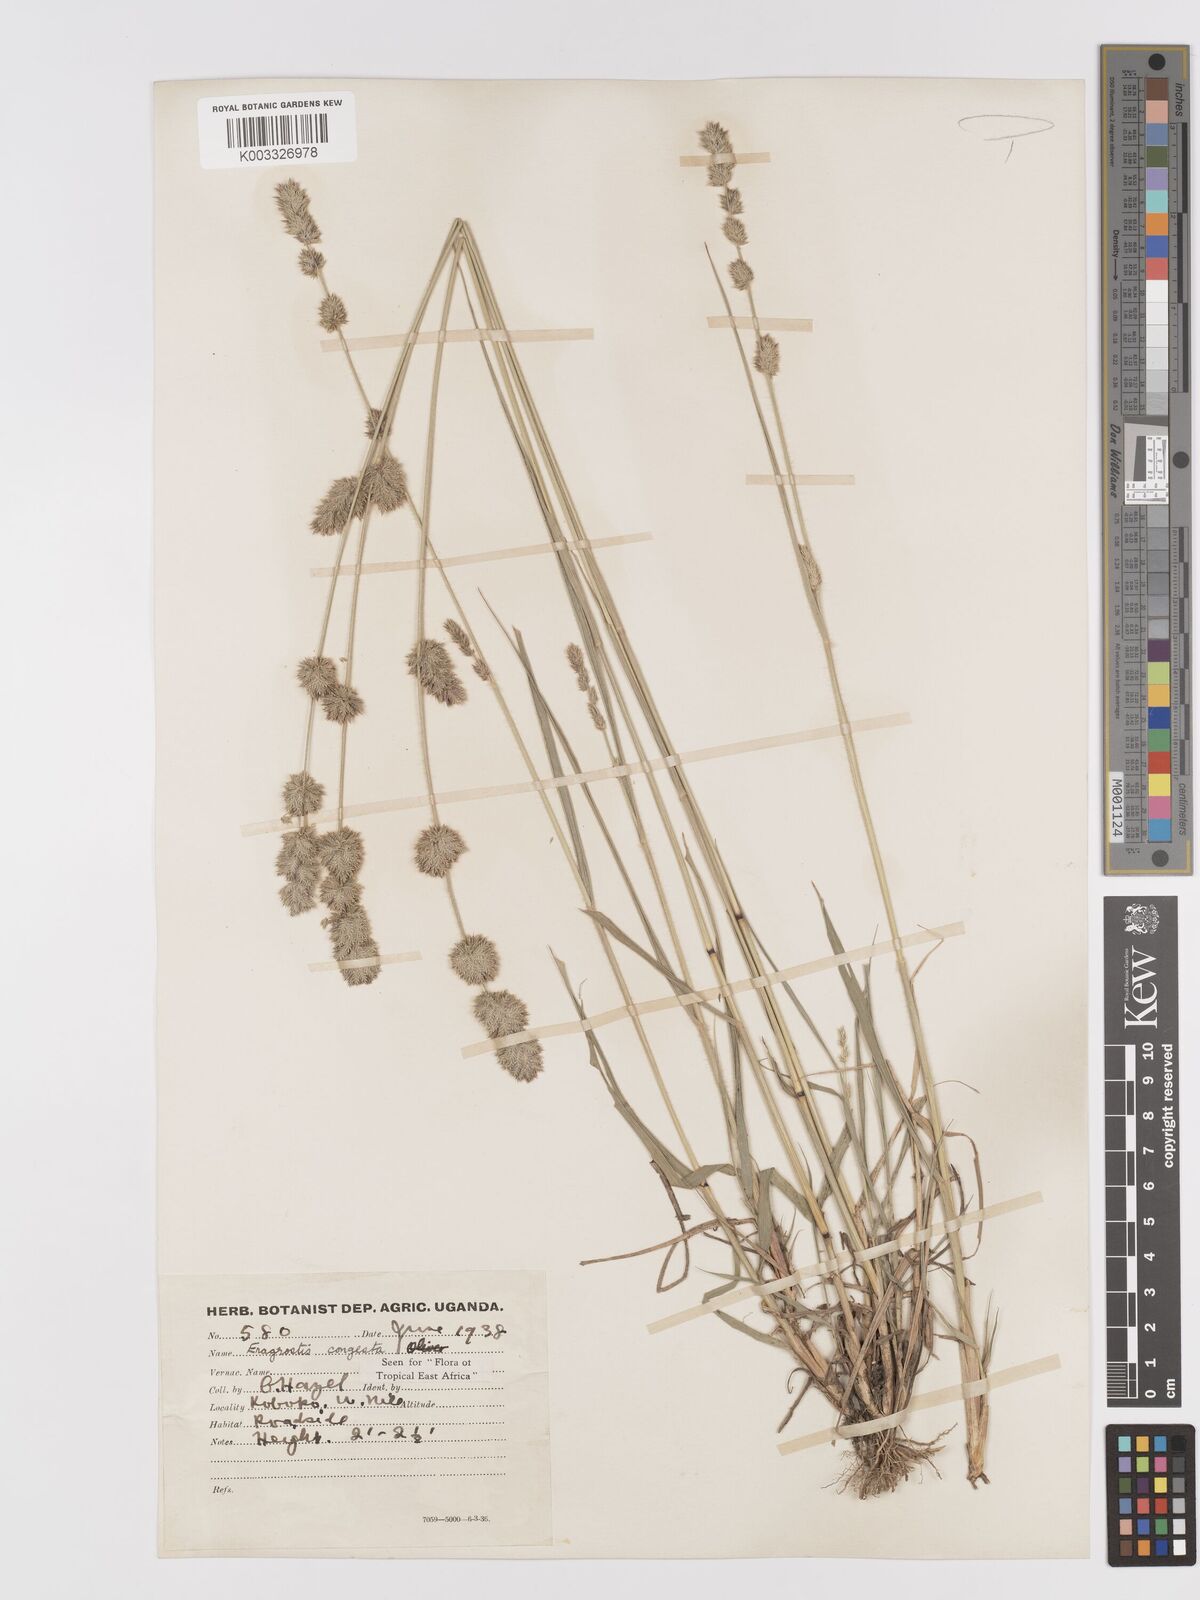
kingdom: Plantae
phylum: Tracheophyta
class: Liliopsida
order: Poales
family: Poaceae
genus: Eragrostis
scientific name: Eragrostis congesta
